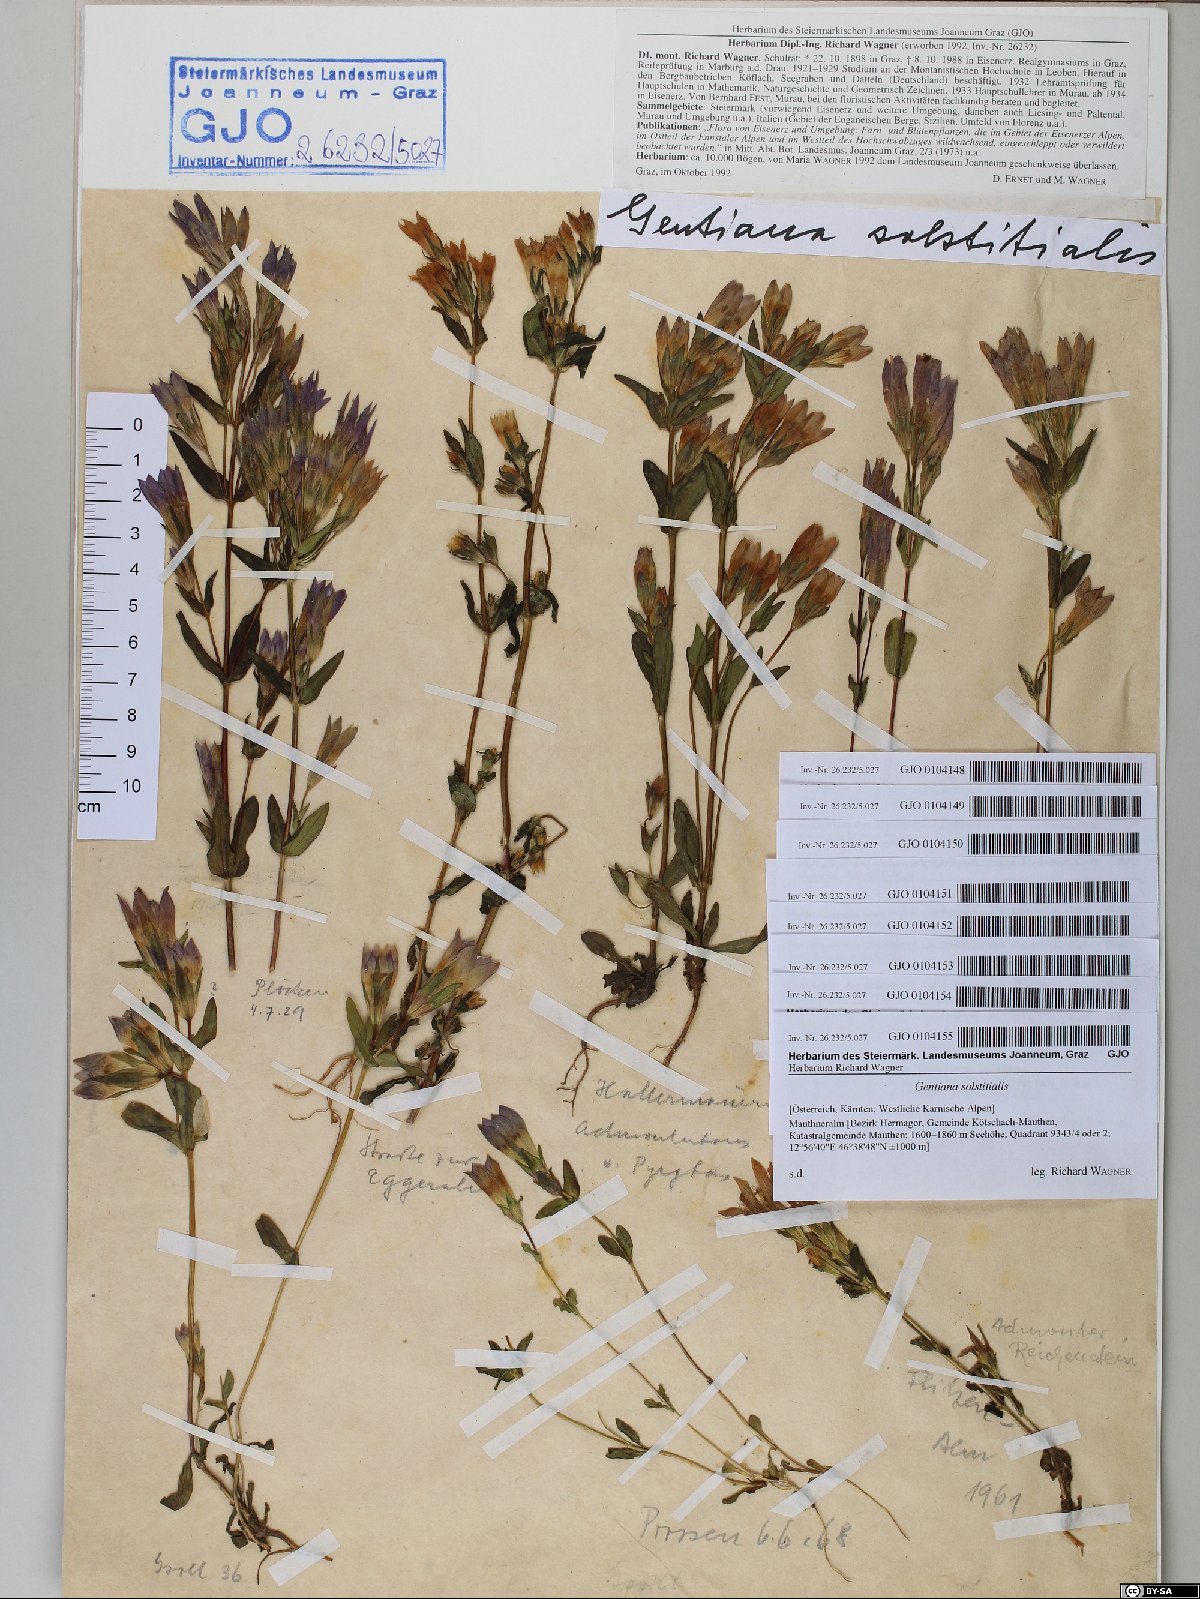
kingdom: Plantae
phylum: Tracheophyta
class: Magnoliopsida
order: Gentianales
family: Gentianaceae
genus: Gentianella
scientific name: Gentianella germanica
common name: Chiltern-gentian
